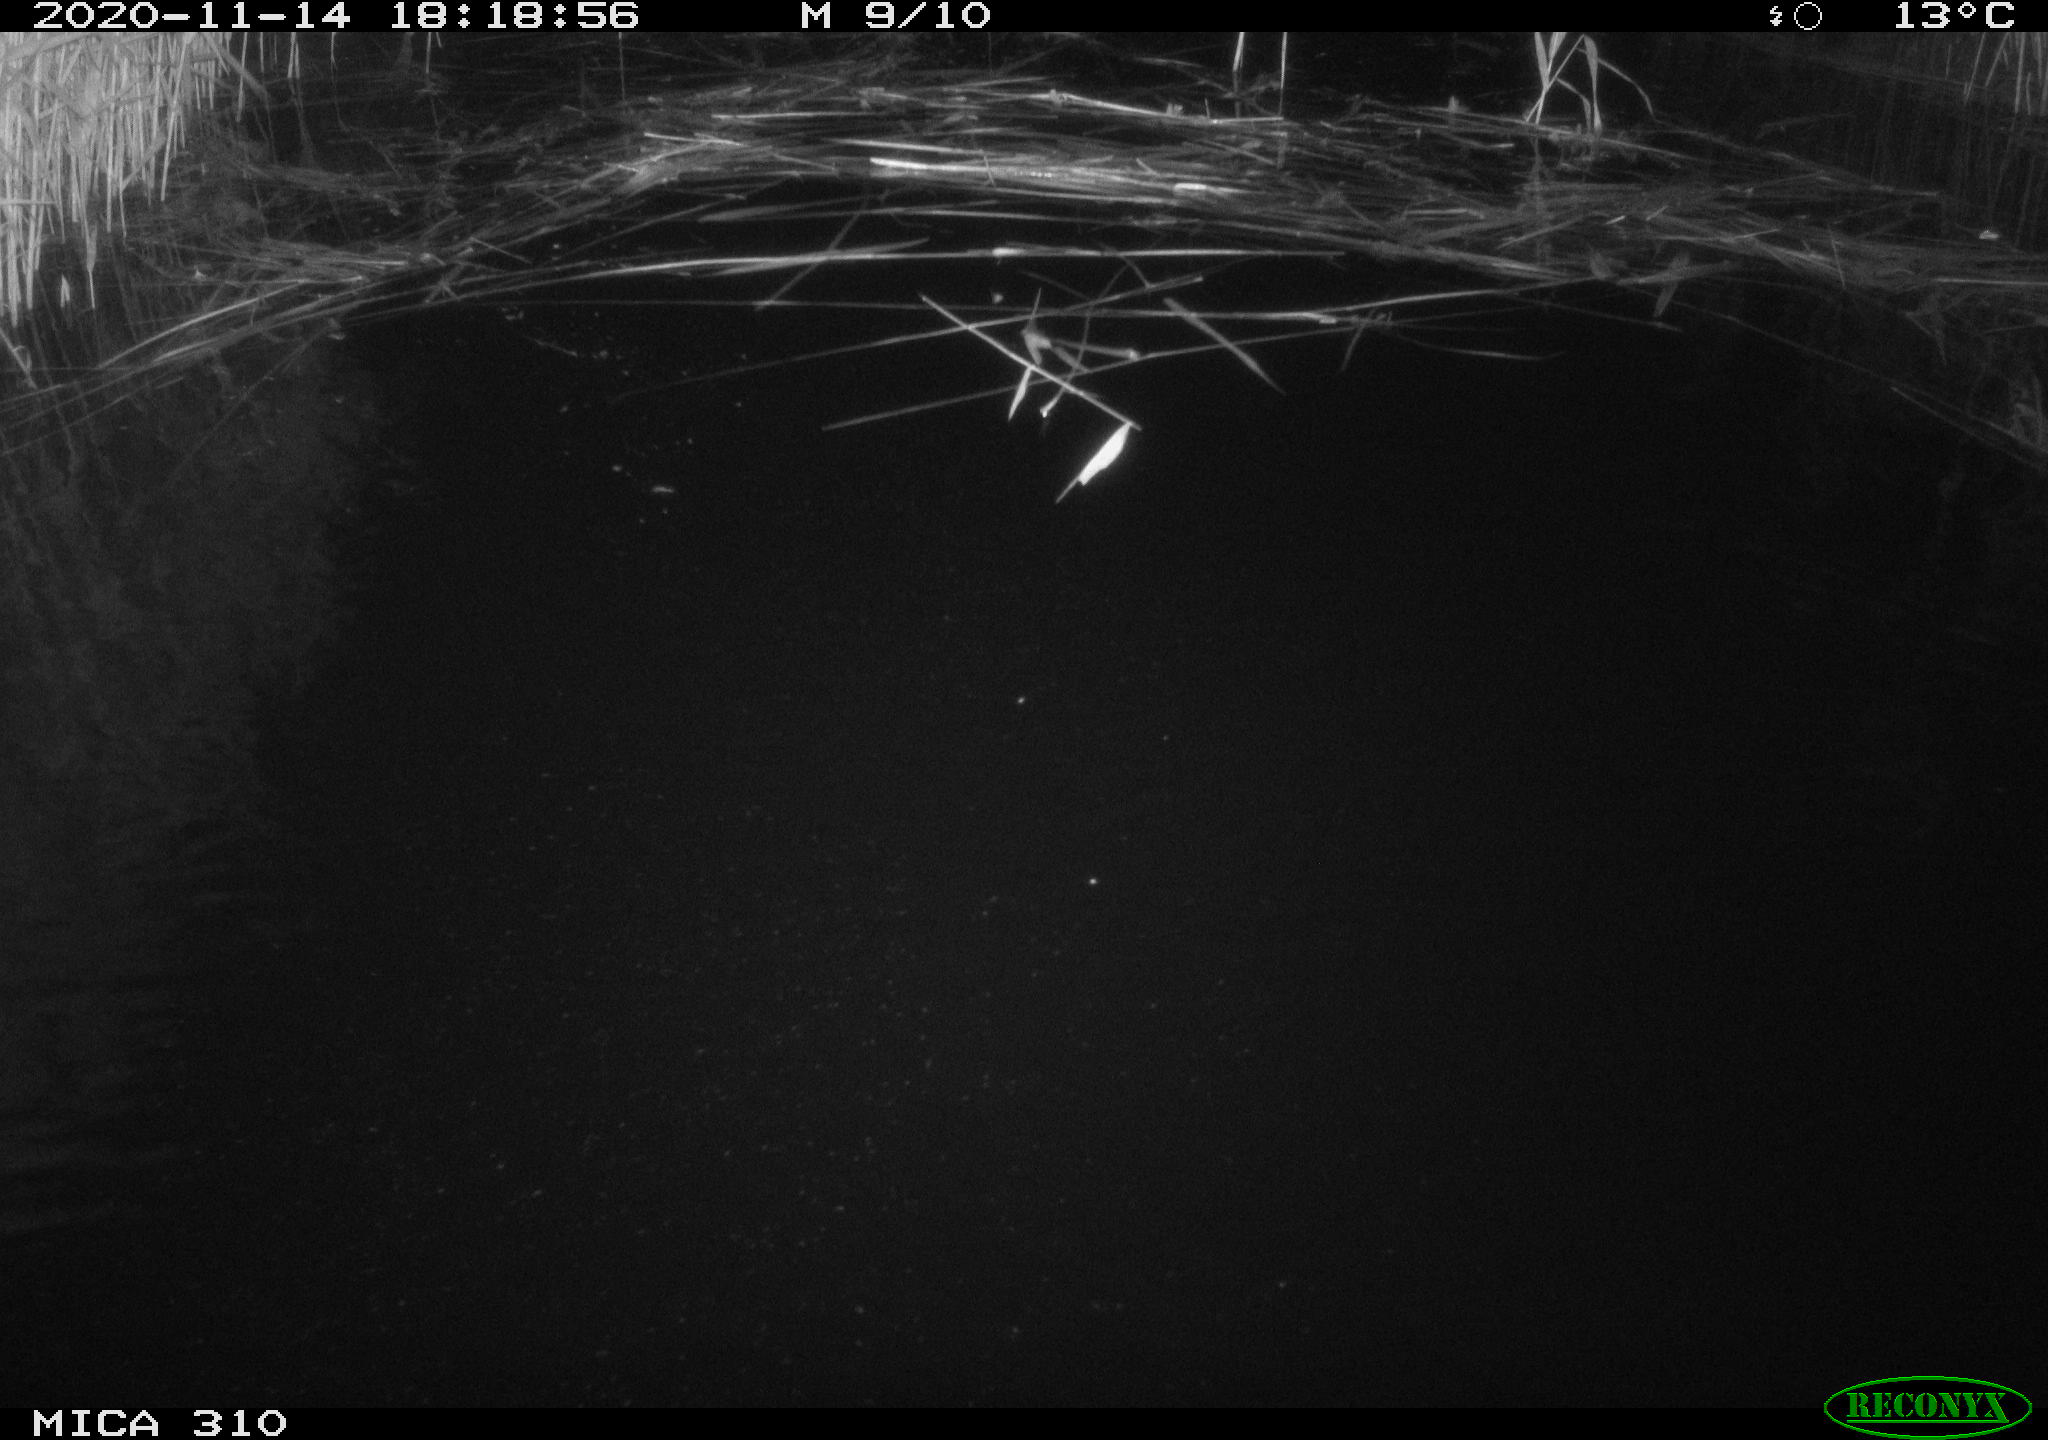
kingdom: Animalia
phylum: Chordata
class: Mammalia
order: Rodentia
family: Muridae
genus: Rattus
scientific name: Rattus norvegicus
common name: Brown rat
